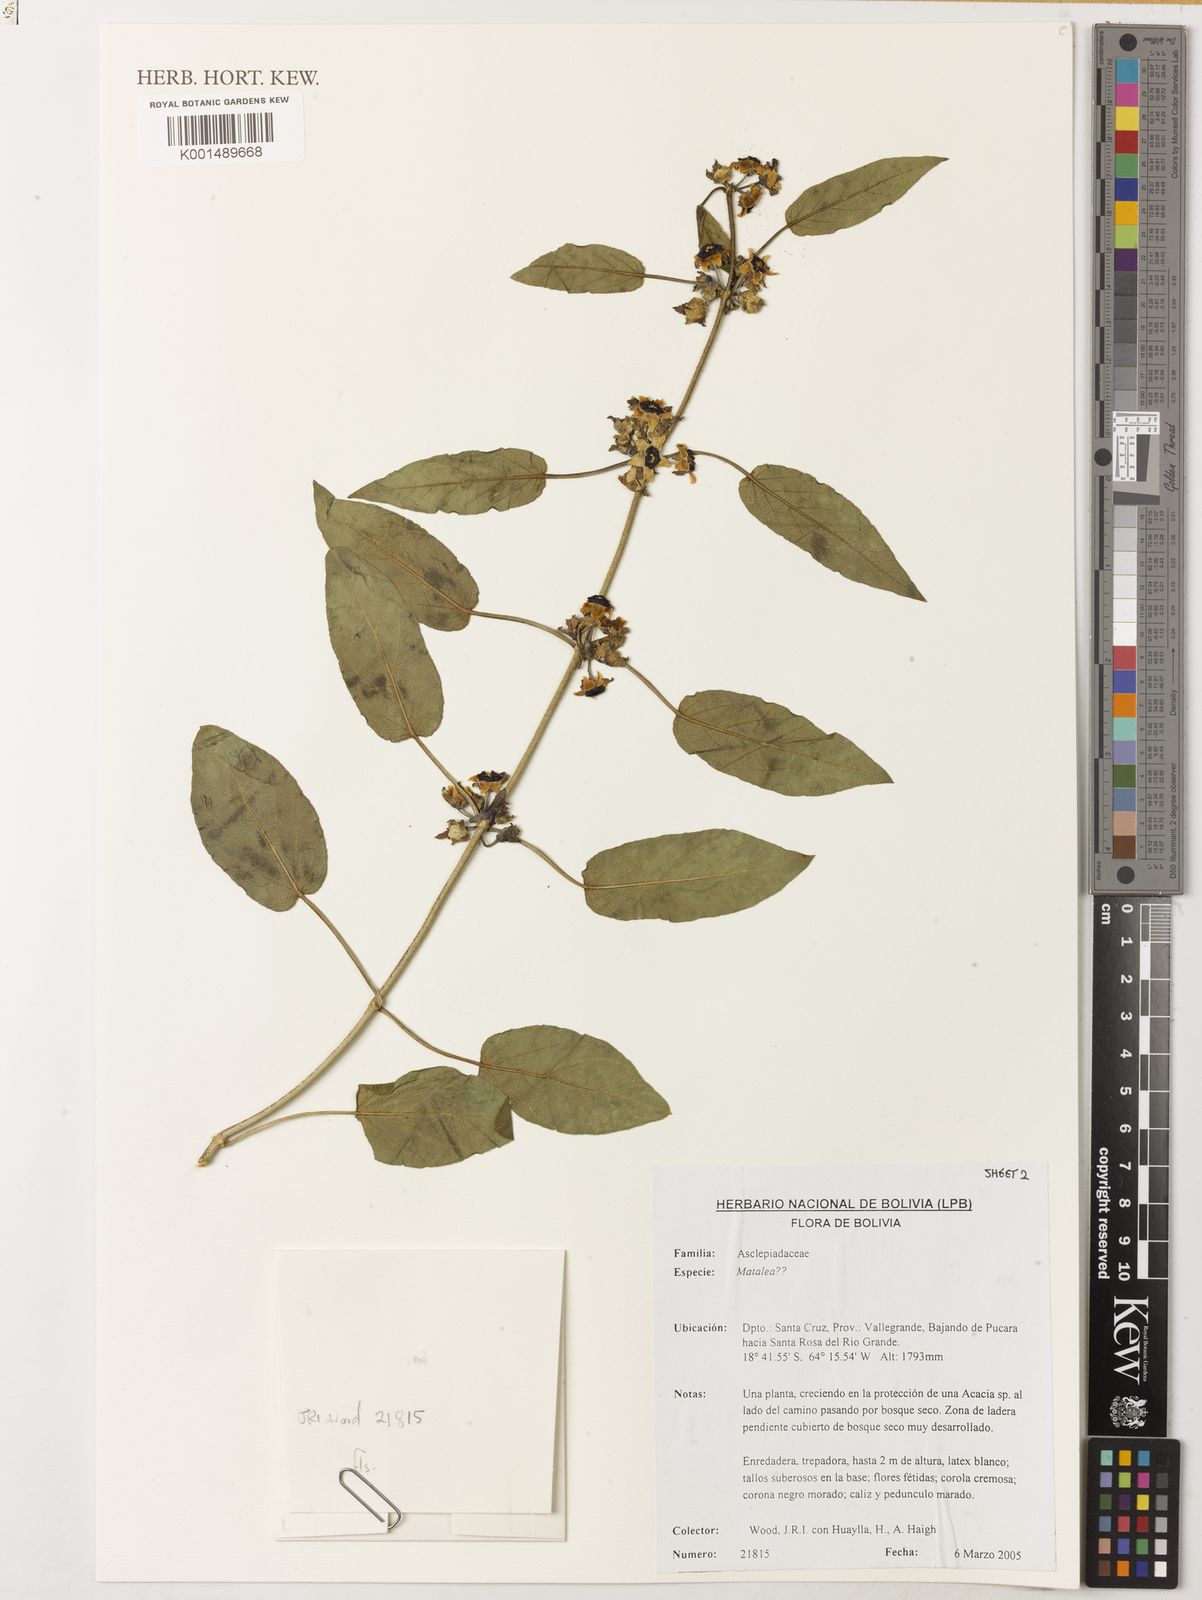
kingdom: Plantae
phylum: Tracheophyta
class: Magnoliopsida
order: Gentianales
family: Apocynaceae
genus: Ibatia
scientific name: Ibatia
